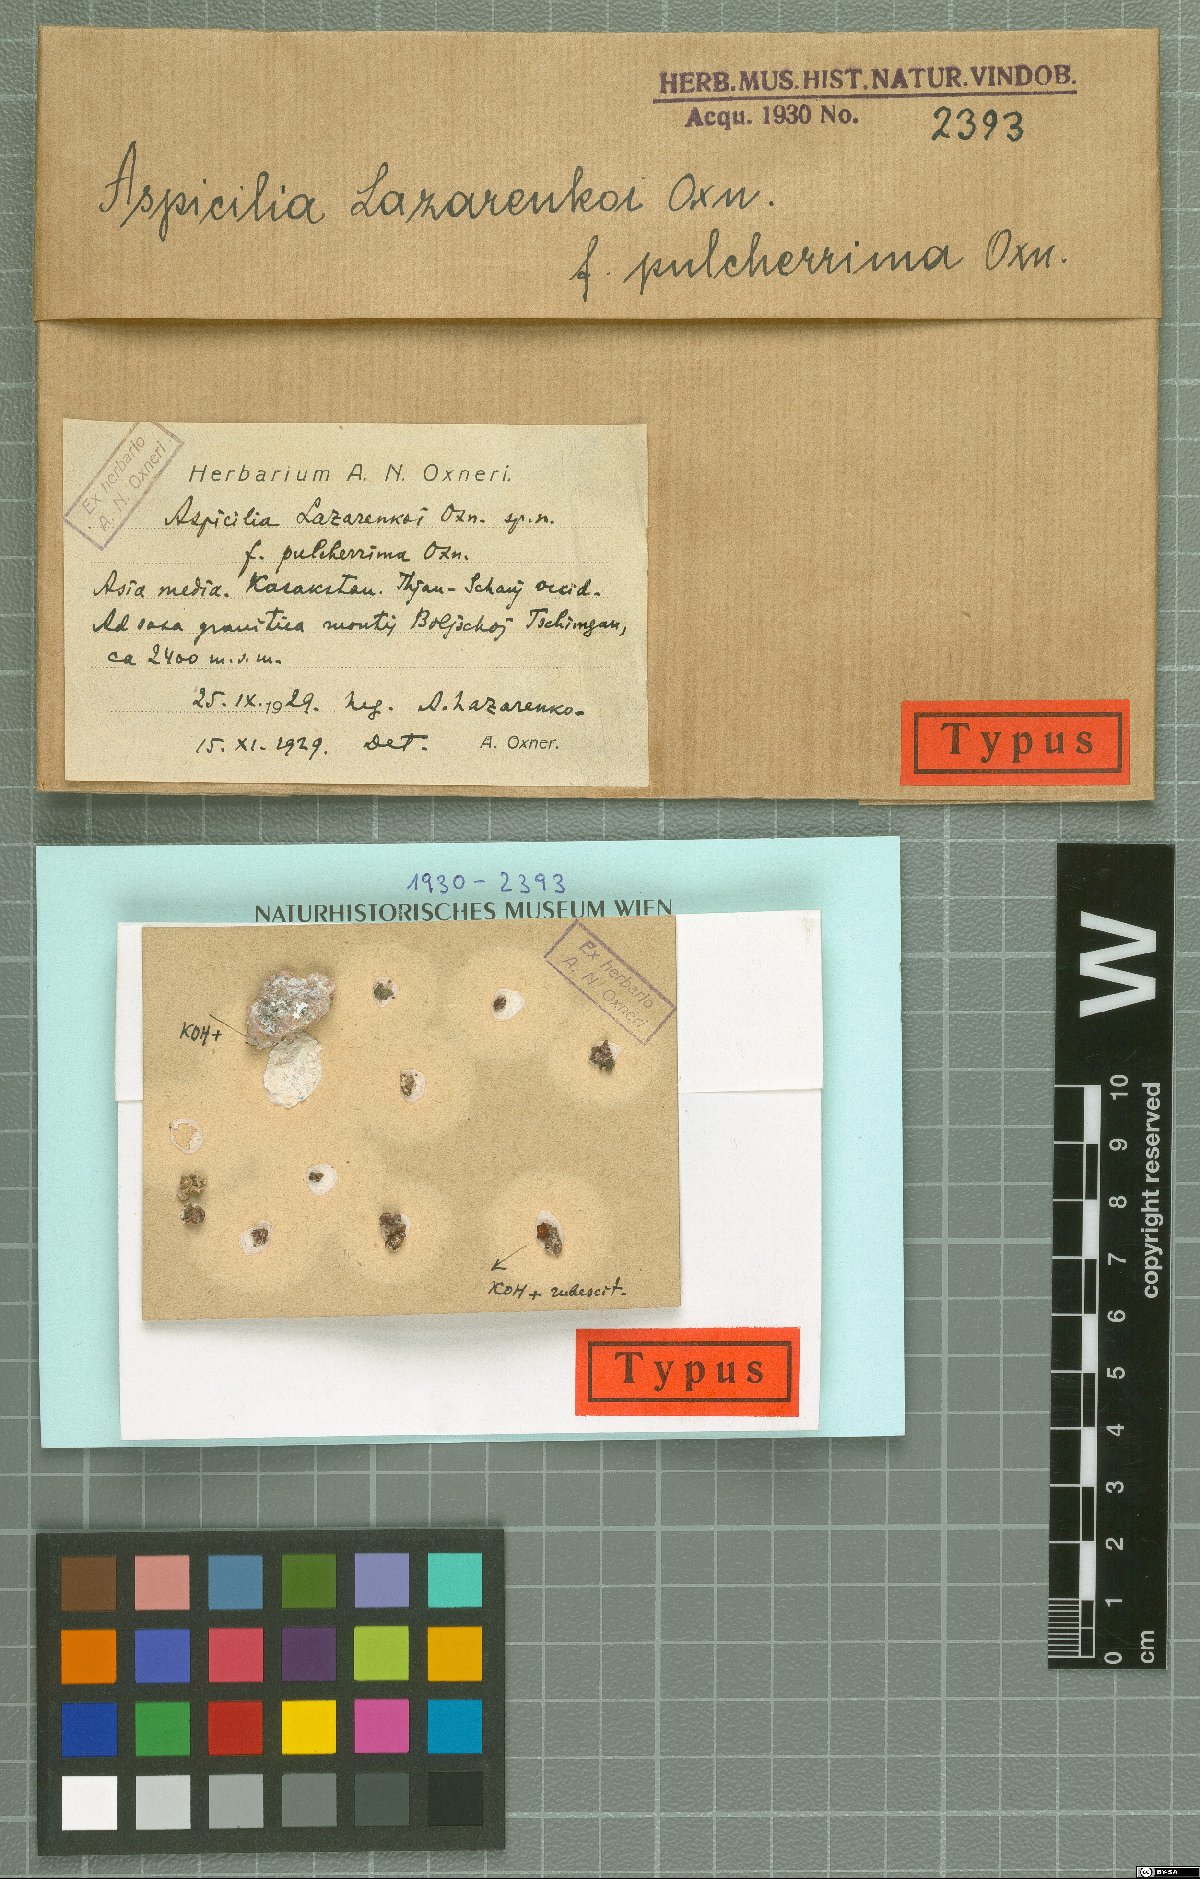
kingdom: Fungi
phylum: Ascomycota
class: Lecanoromycetes
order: Hymeneliales
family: Hymeneliaceae
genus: Aspicilia
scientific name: Aspicilia
